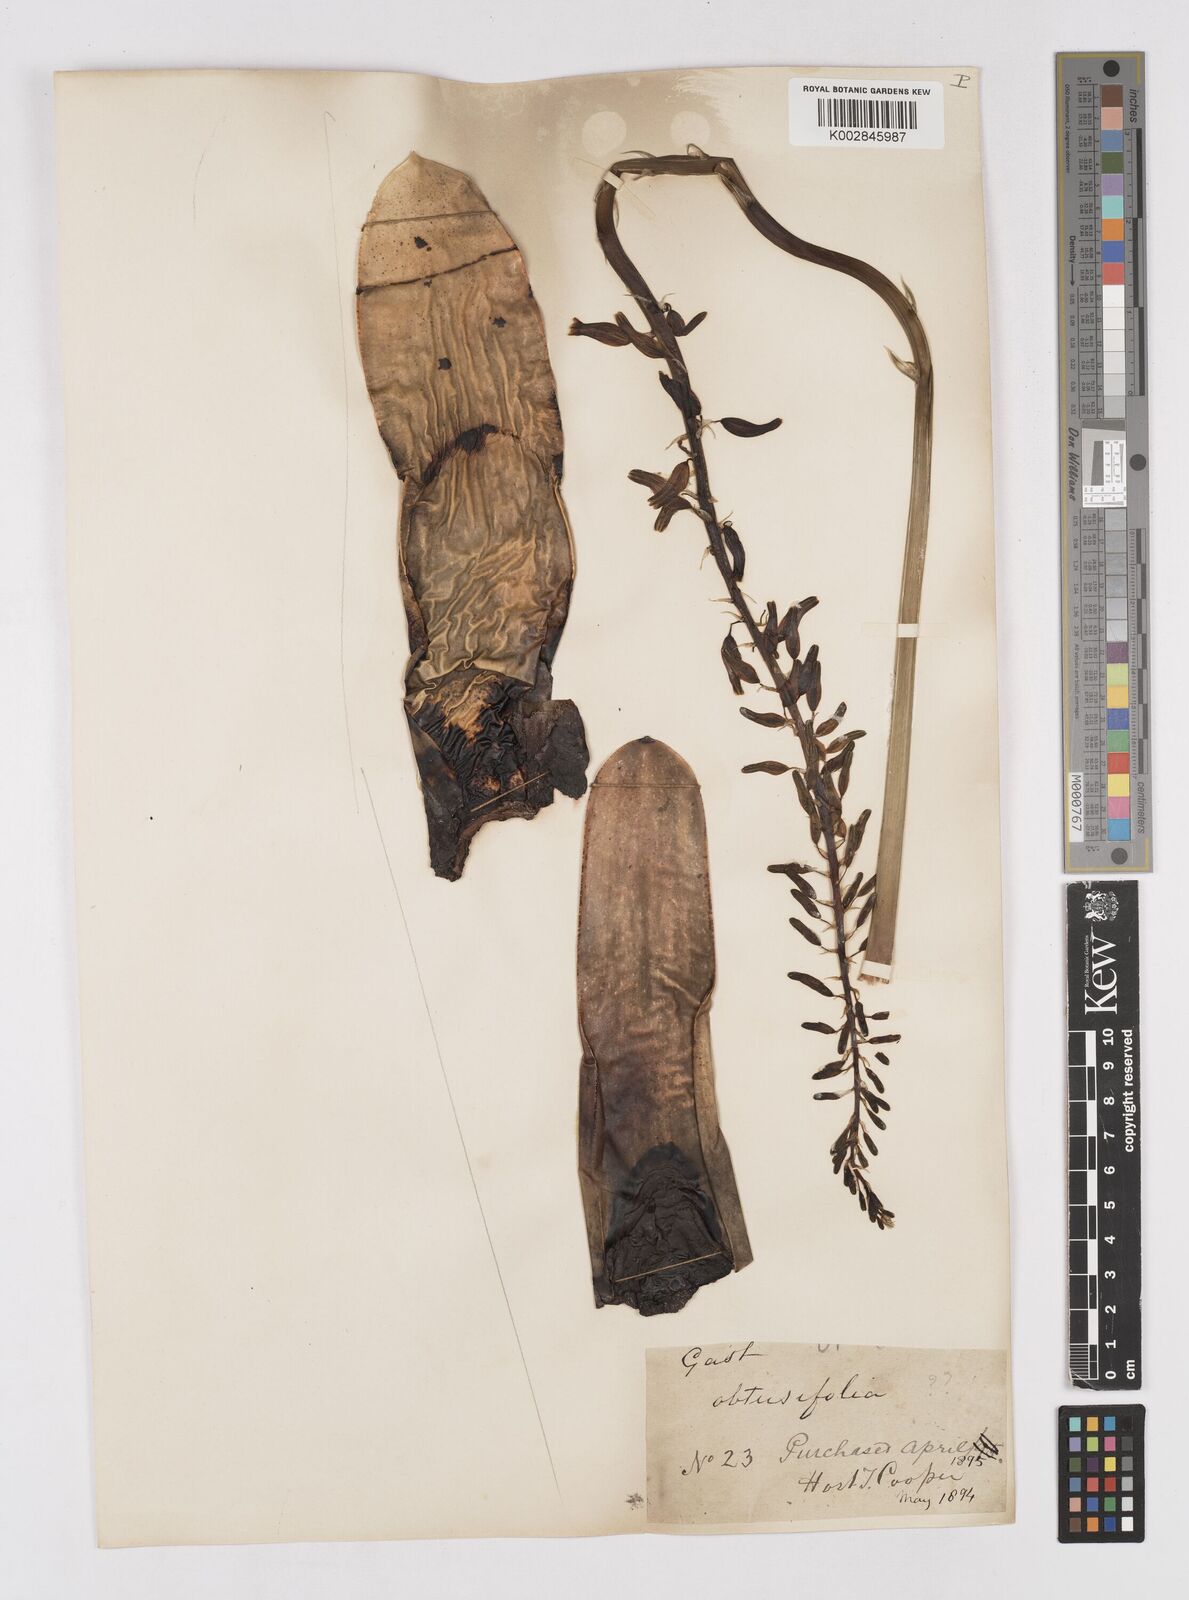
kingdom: Plantae
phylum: Tracheophyta
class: Liliopsida
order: Asparagales
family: Asphodelaceae
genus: Gasteria
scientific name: Gasteria disticha
